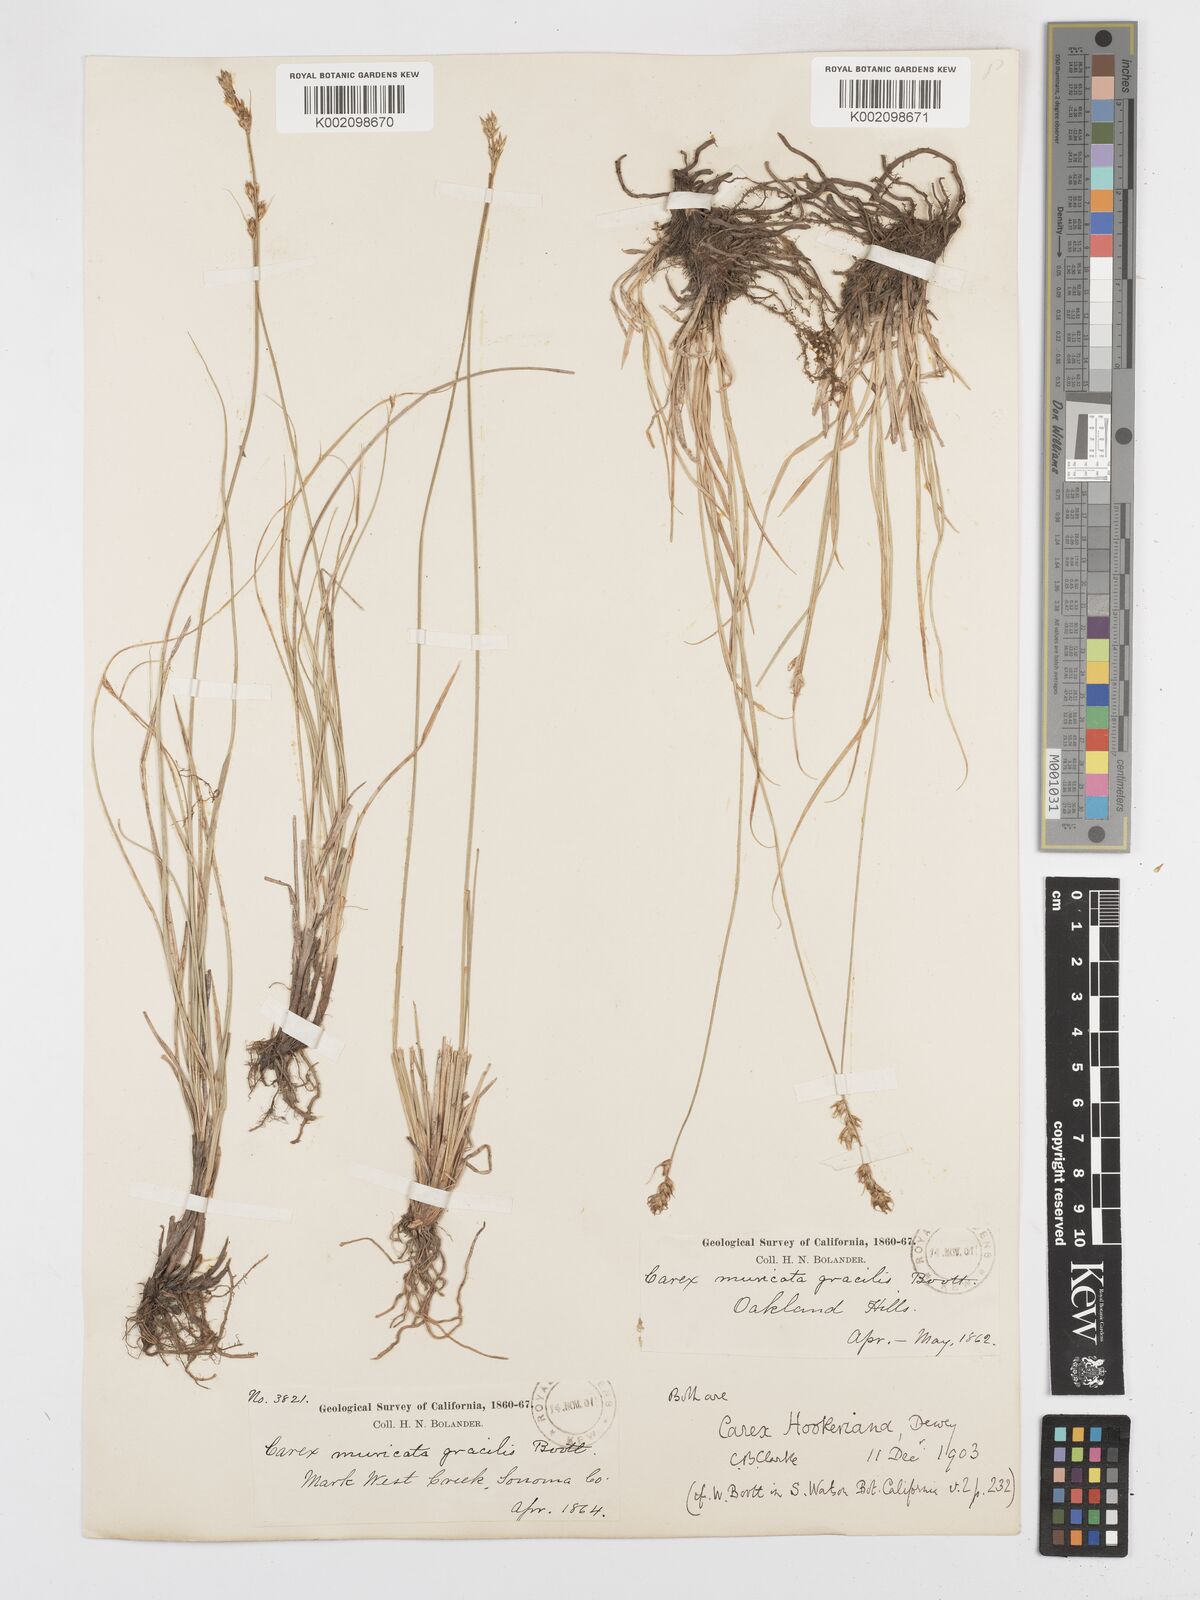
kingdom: Plantae
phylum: Tracheophyta
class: Liliopsida
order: Poales
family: Cyperaceae
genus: Carex
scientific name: Carex tumulicola
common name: Splitawn sedge
